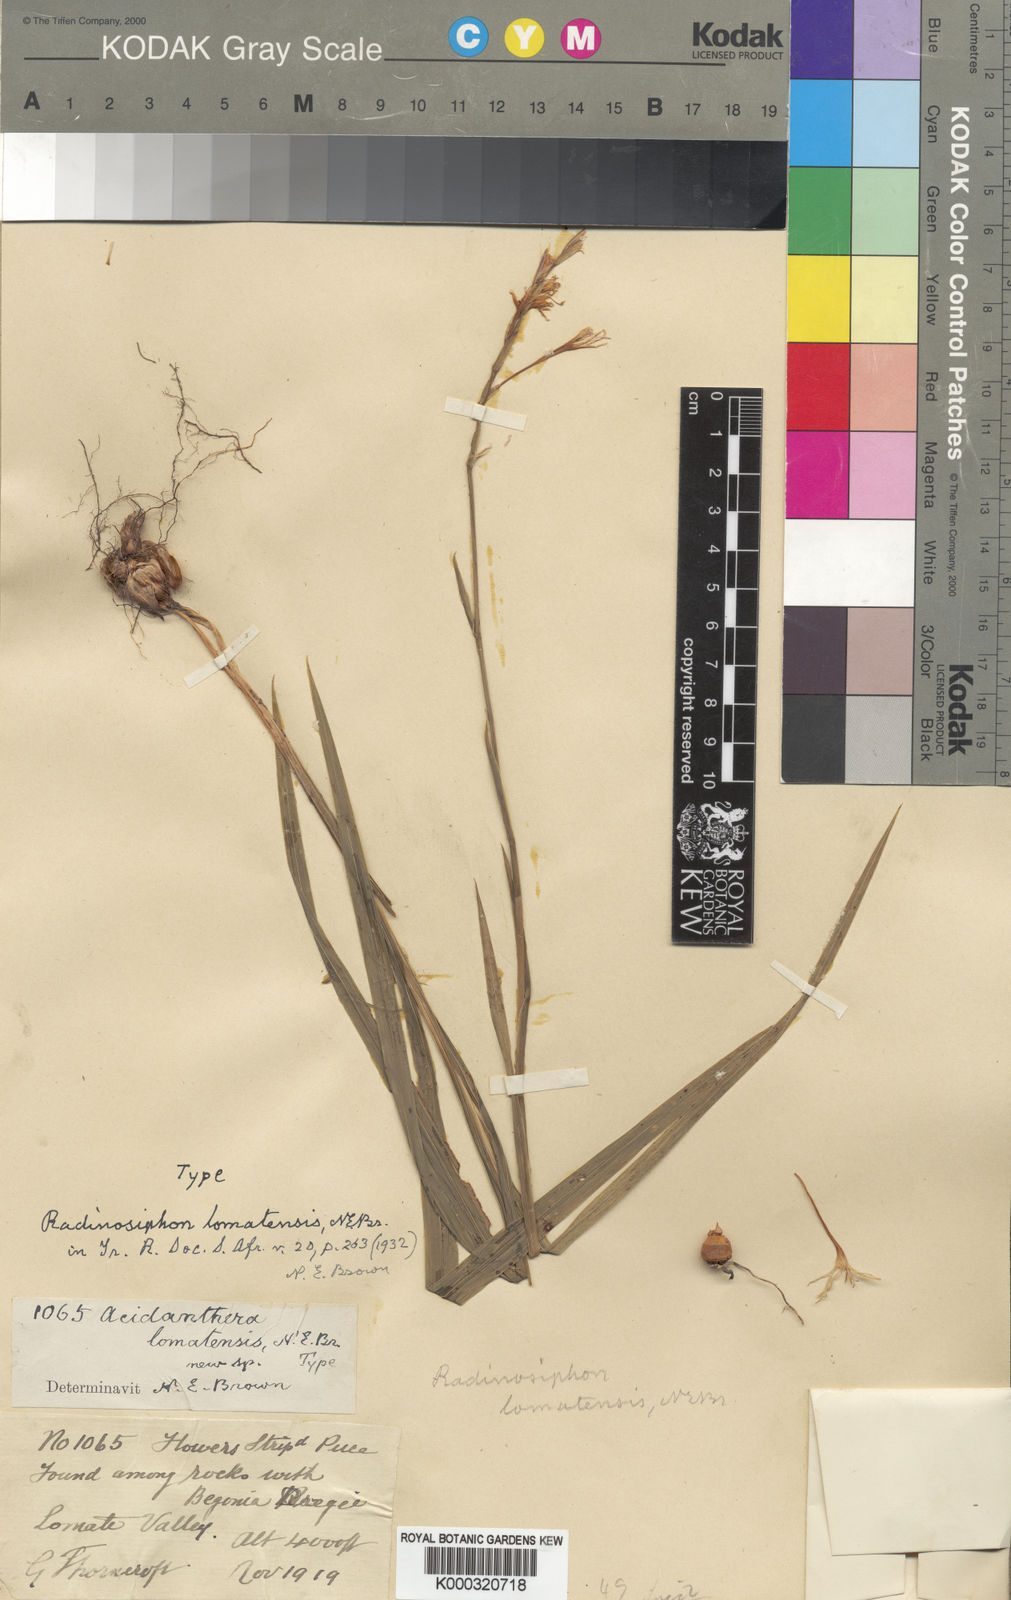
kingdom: Plantae
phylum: Tracheophyta
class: Liliopsida
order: Asparagales
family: Iridaceae
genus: Radinosiphon
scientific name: Radinosiphon leptostachya
